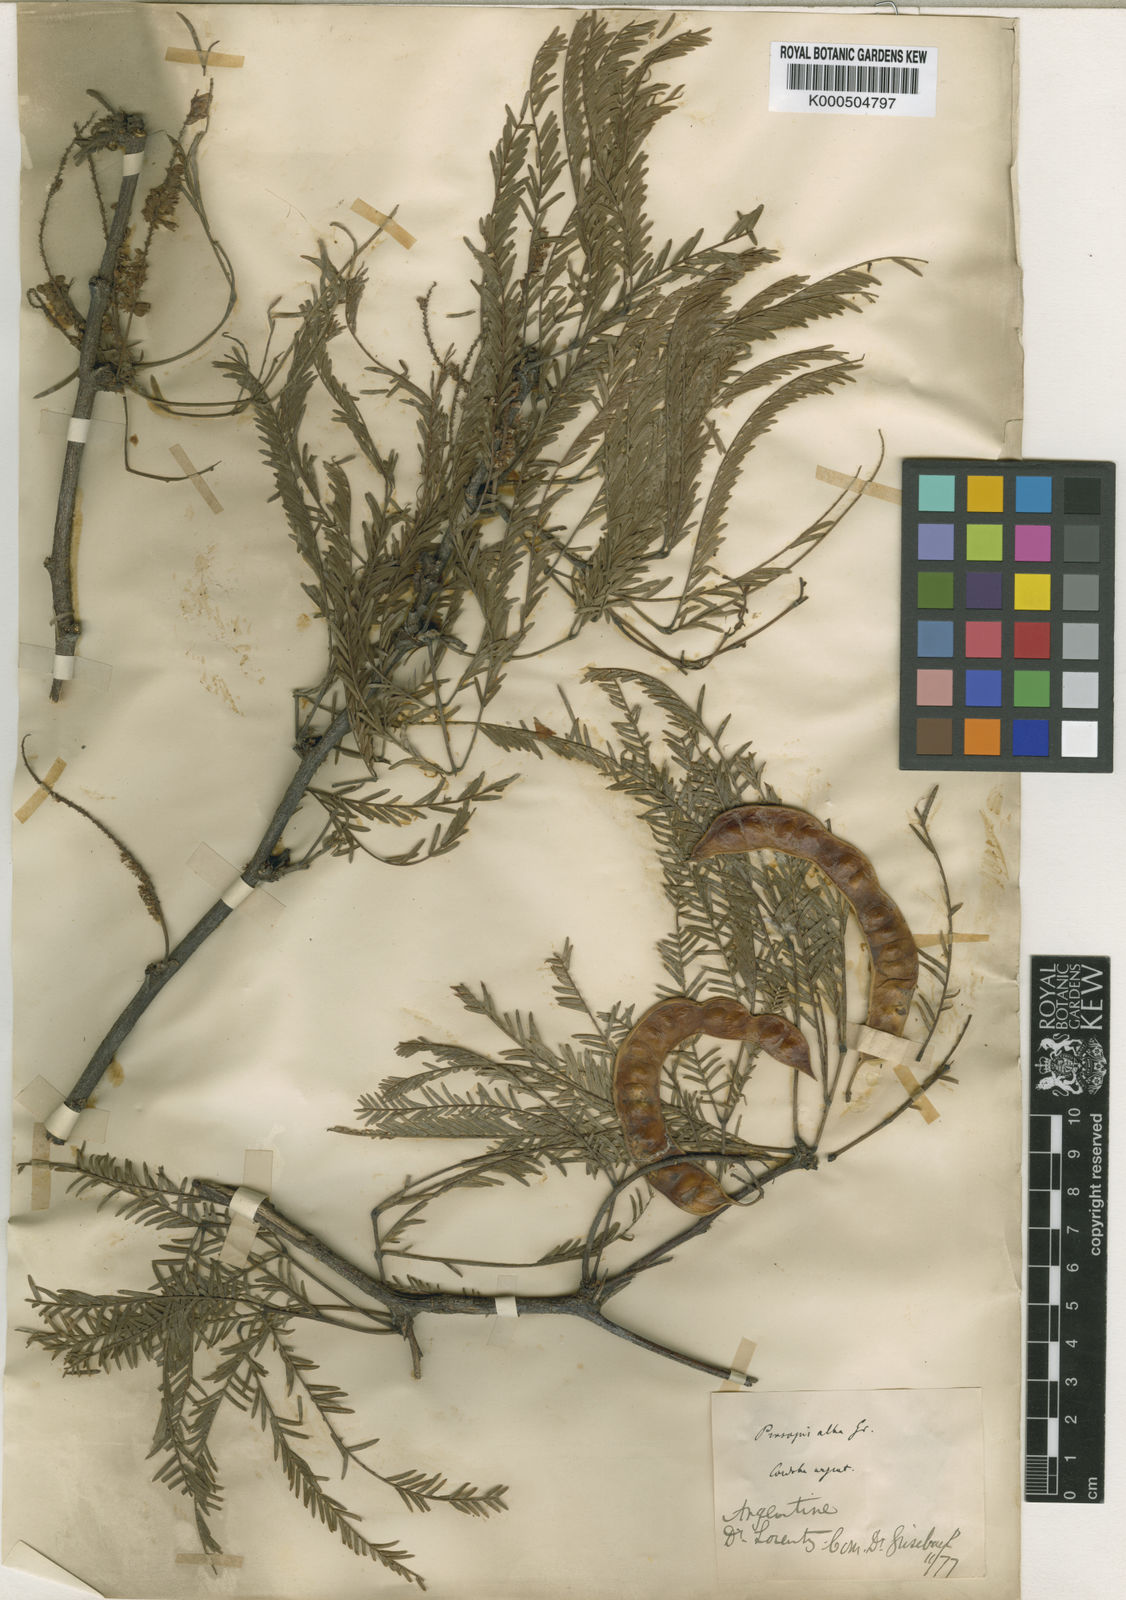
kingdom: Plantae
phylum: Tracheophyta
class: Magnoliopsida
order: Fabales
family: Fabaceae
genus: Prosopis
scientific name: Prosopis alba
